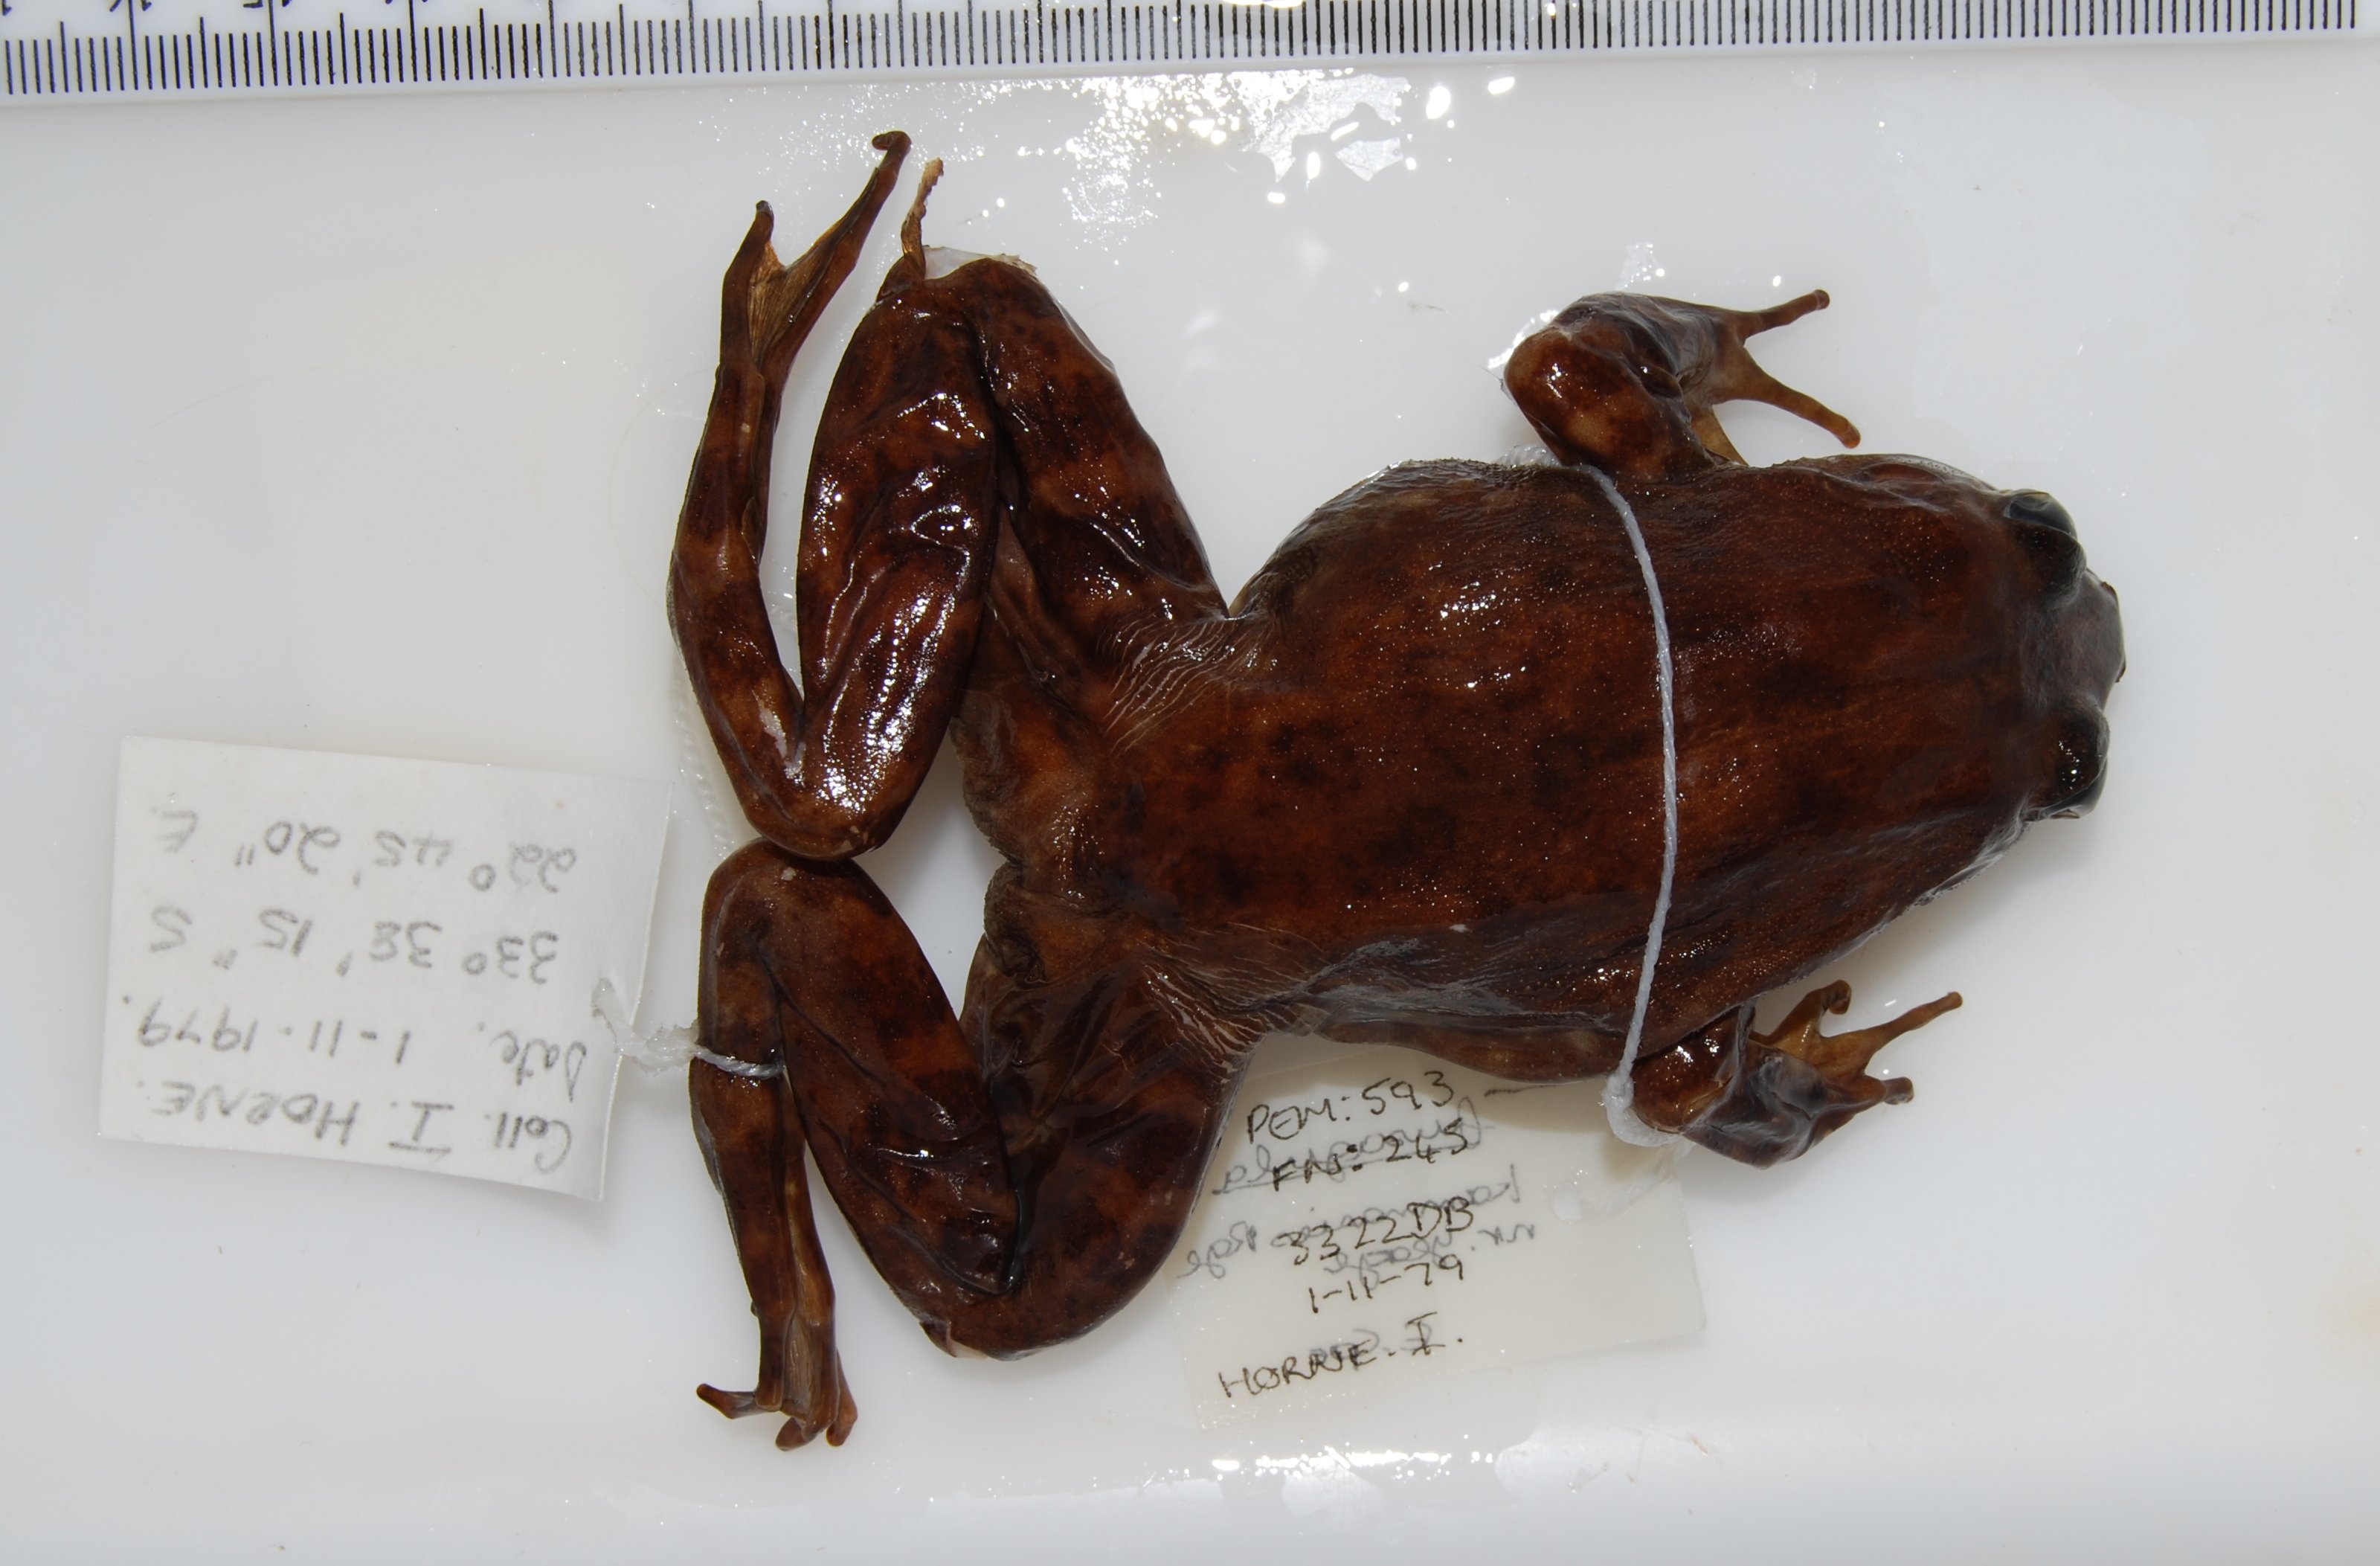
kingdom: Animalia
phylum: Chordata
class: Amphibia
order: Anura
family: Pyxicephalidae
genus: Amietia
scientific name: Amietia fuscigula
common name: Cape rana
